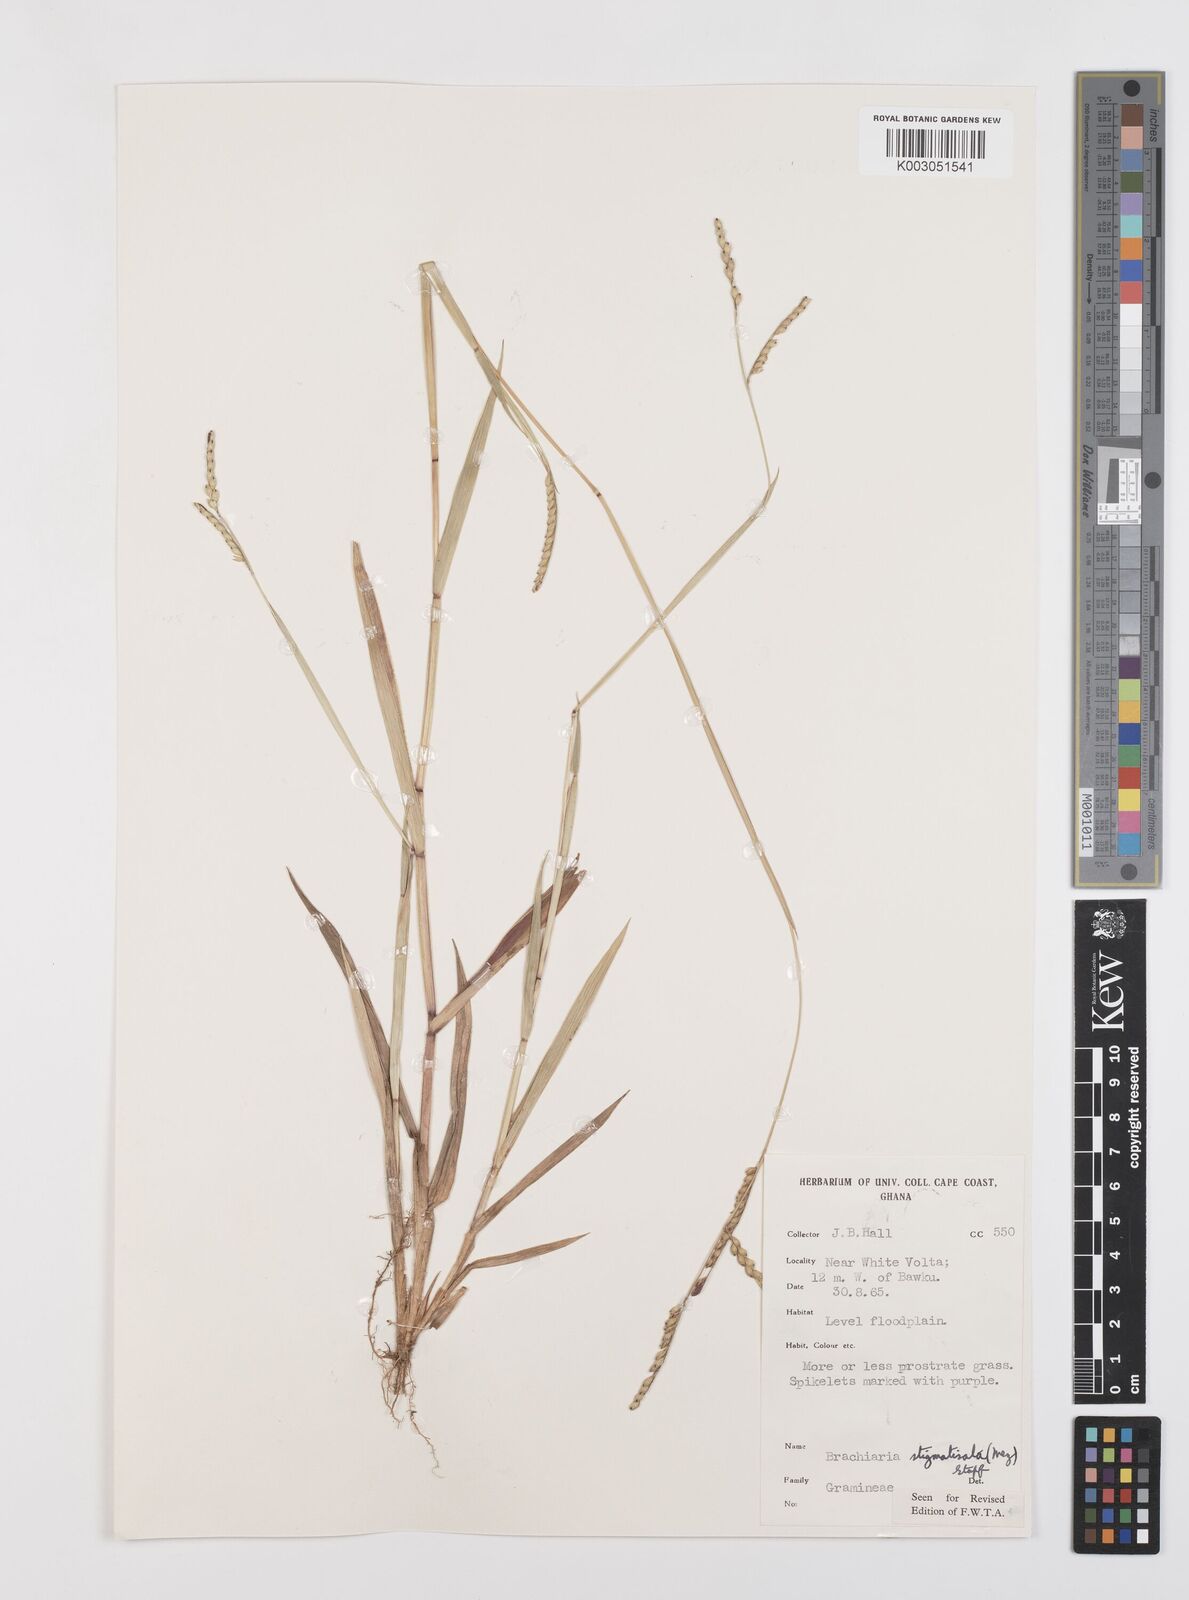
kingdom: Plantae
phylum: Tracheophyta
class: Liliopsida
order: Poales
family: Poaceae
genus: Urochloa
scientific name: Urochloa stigmatisata
